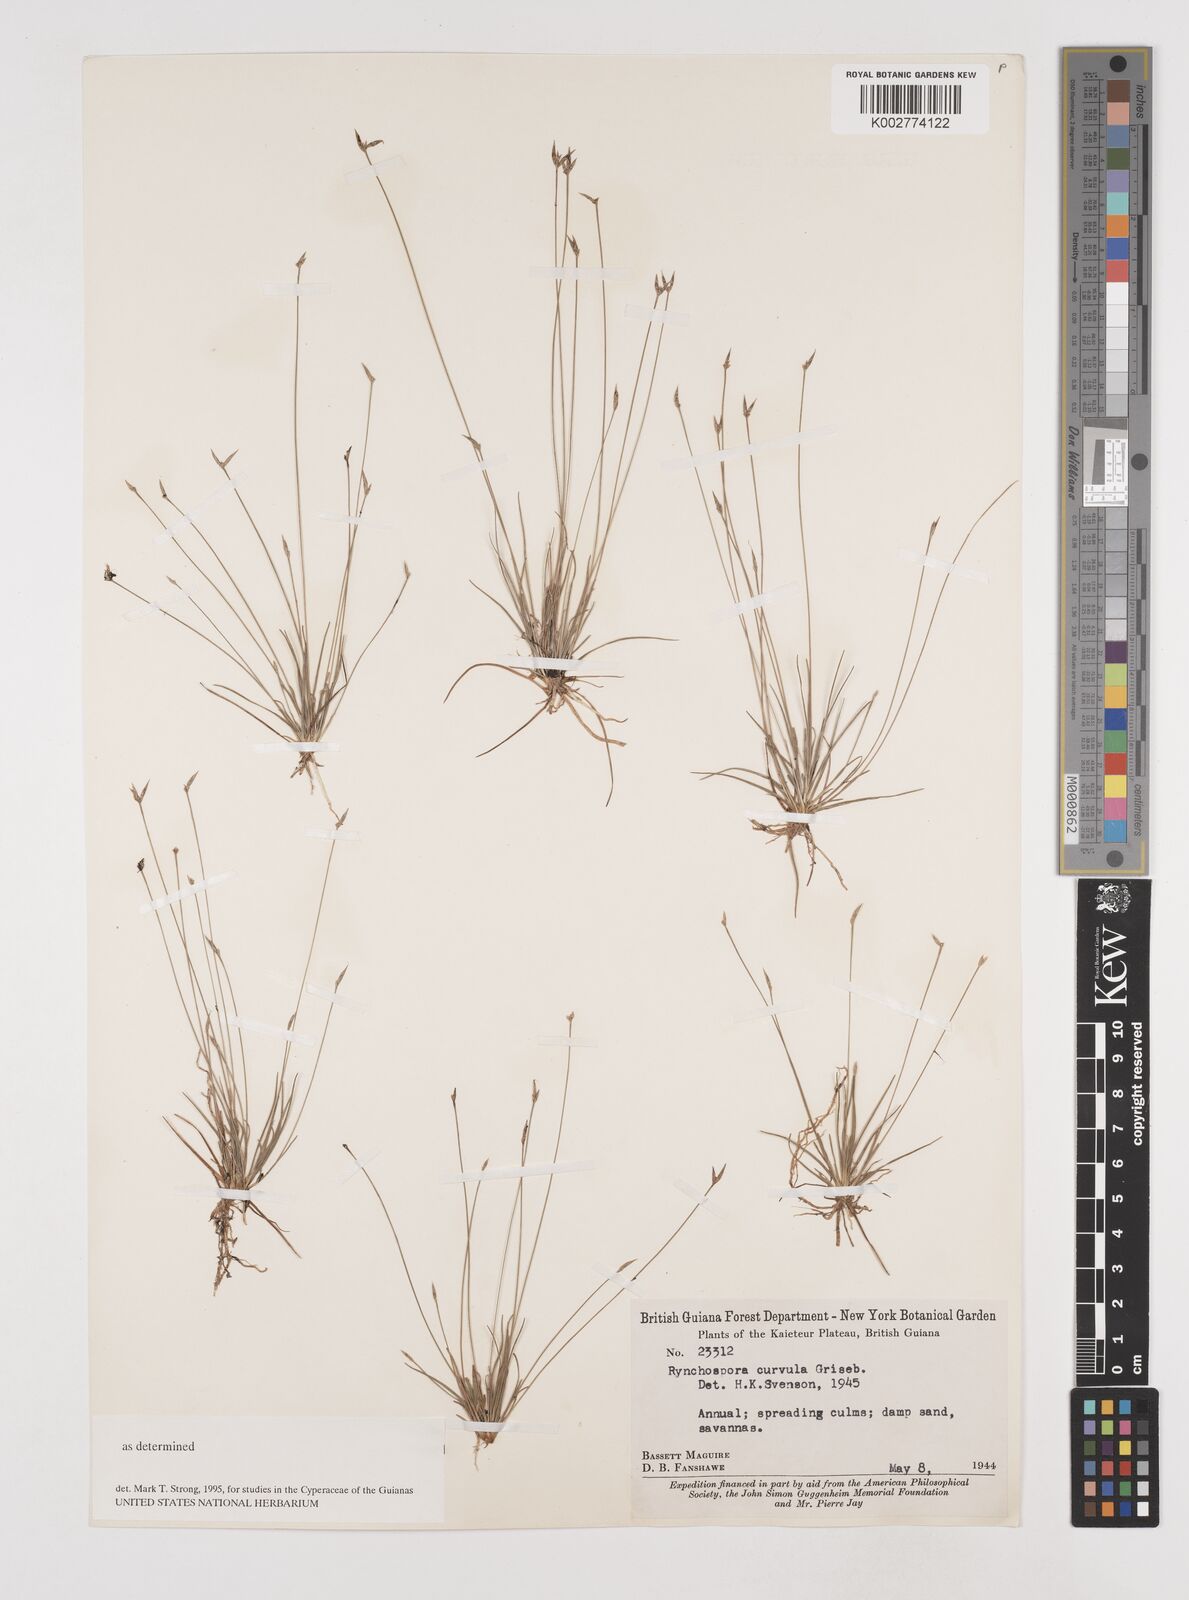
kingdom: Plantae
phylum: Tracheophyta
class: Liliopsida
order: Poales
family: Cyperaceae
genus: Rhynchospora
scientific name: Rhynchospora curvula
